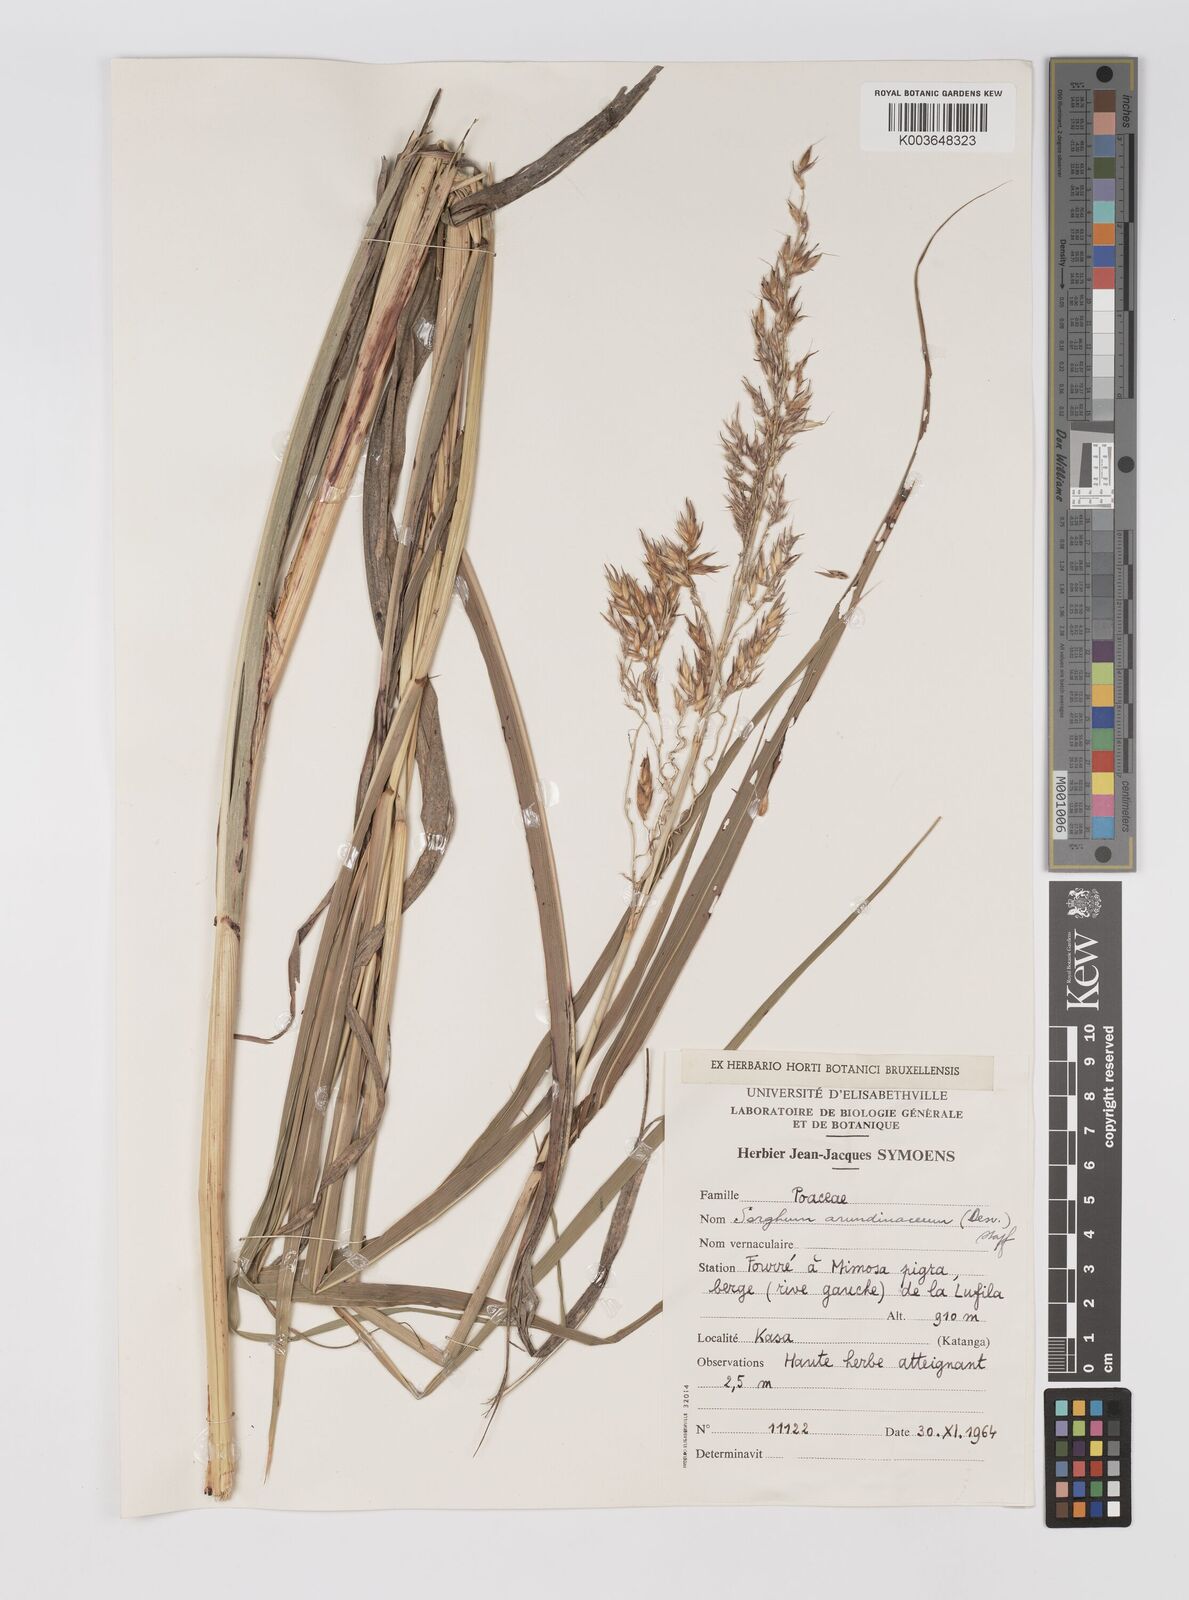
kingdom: Plantae
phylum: Tracheophyta
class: Liliopsida
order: Poales
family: Poaceae
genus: Sorghum
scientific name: Sorghum arundinaceum
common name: Sorghum
